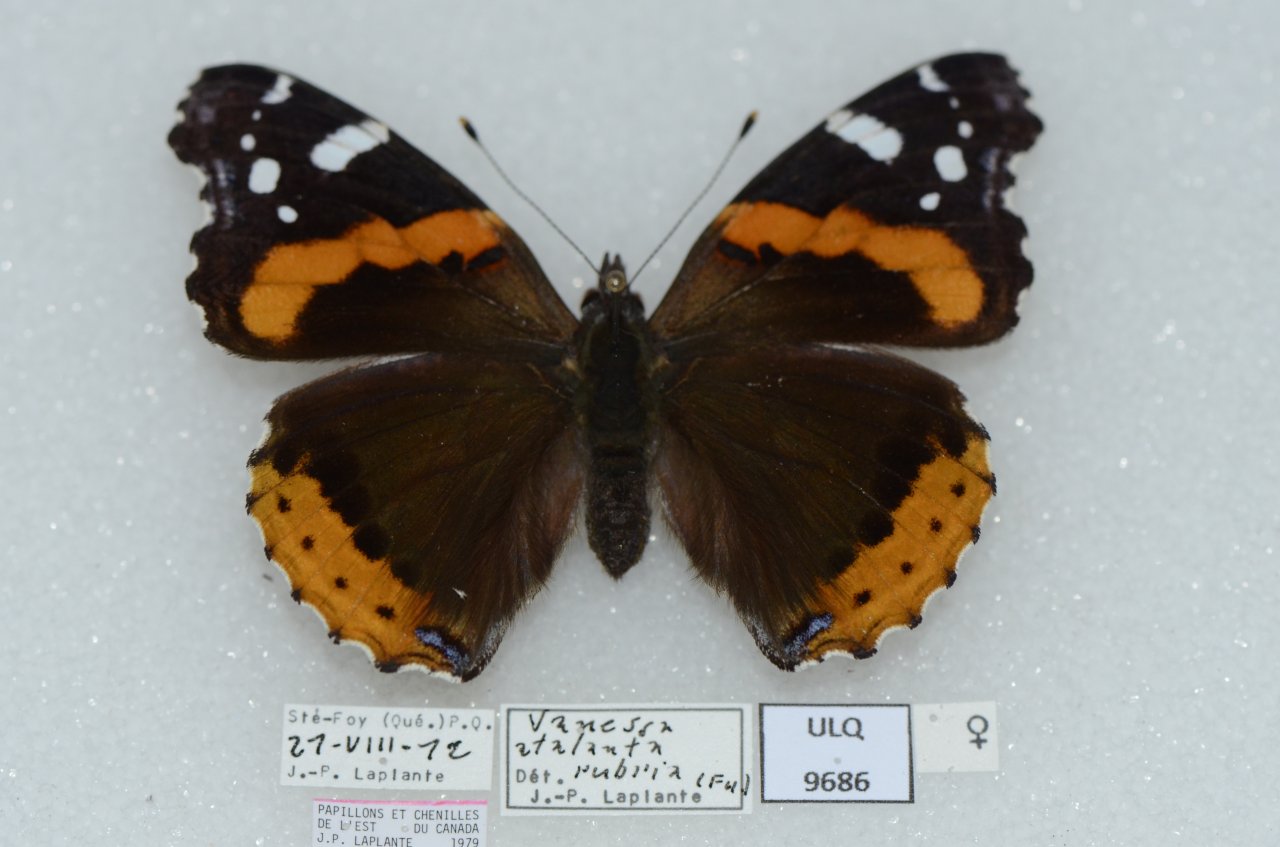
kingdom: Animalia
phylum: Arthropoda
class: Insecta
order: Lepidoptera
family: Nymphalidae
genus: Vanessa
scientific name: Vanessa atalanta
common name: Red Admiral
